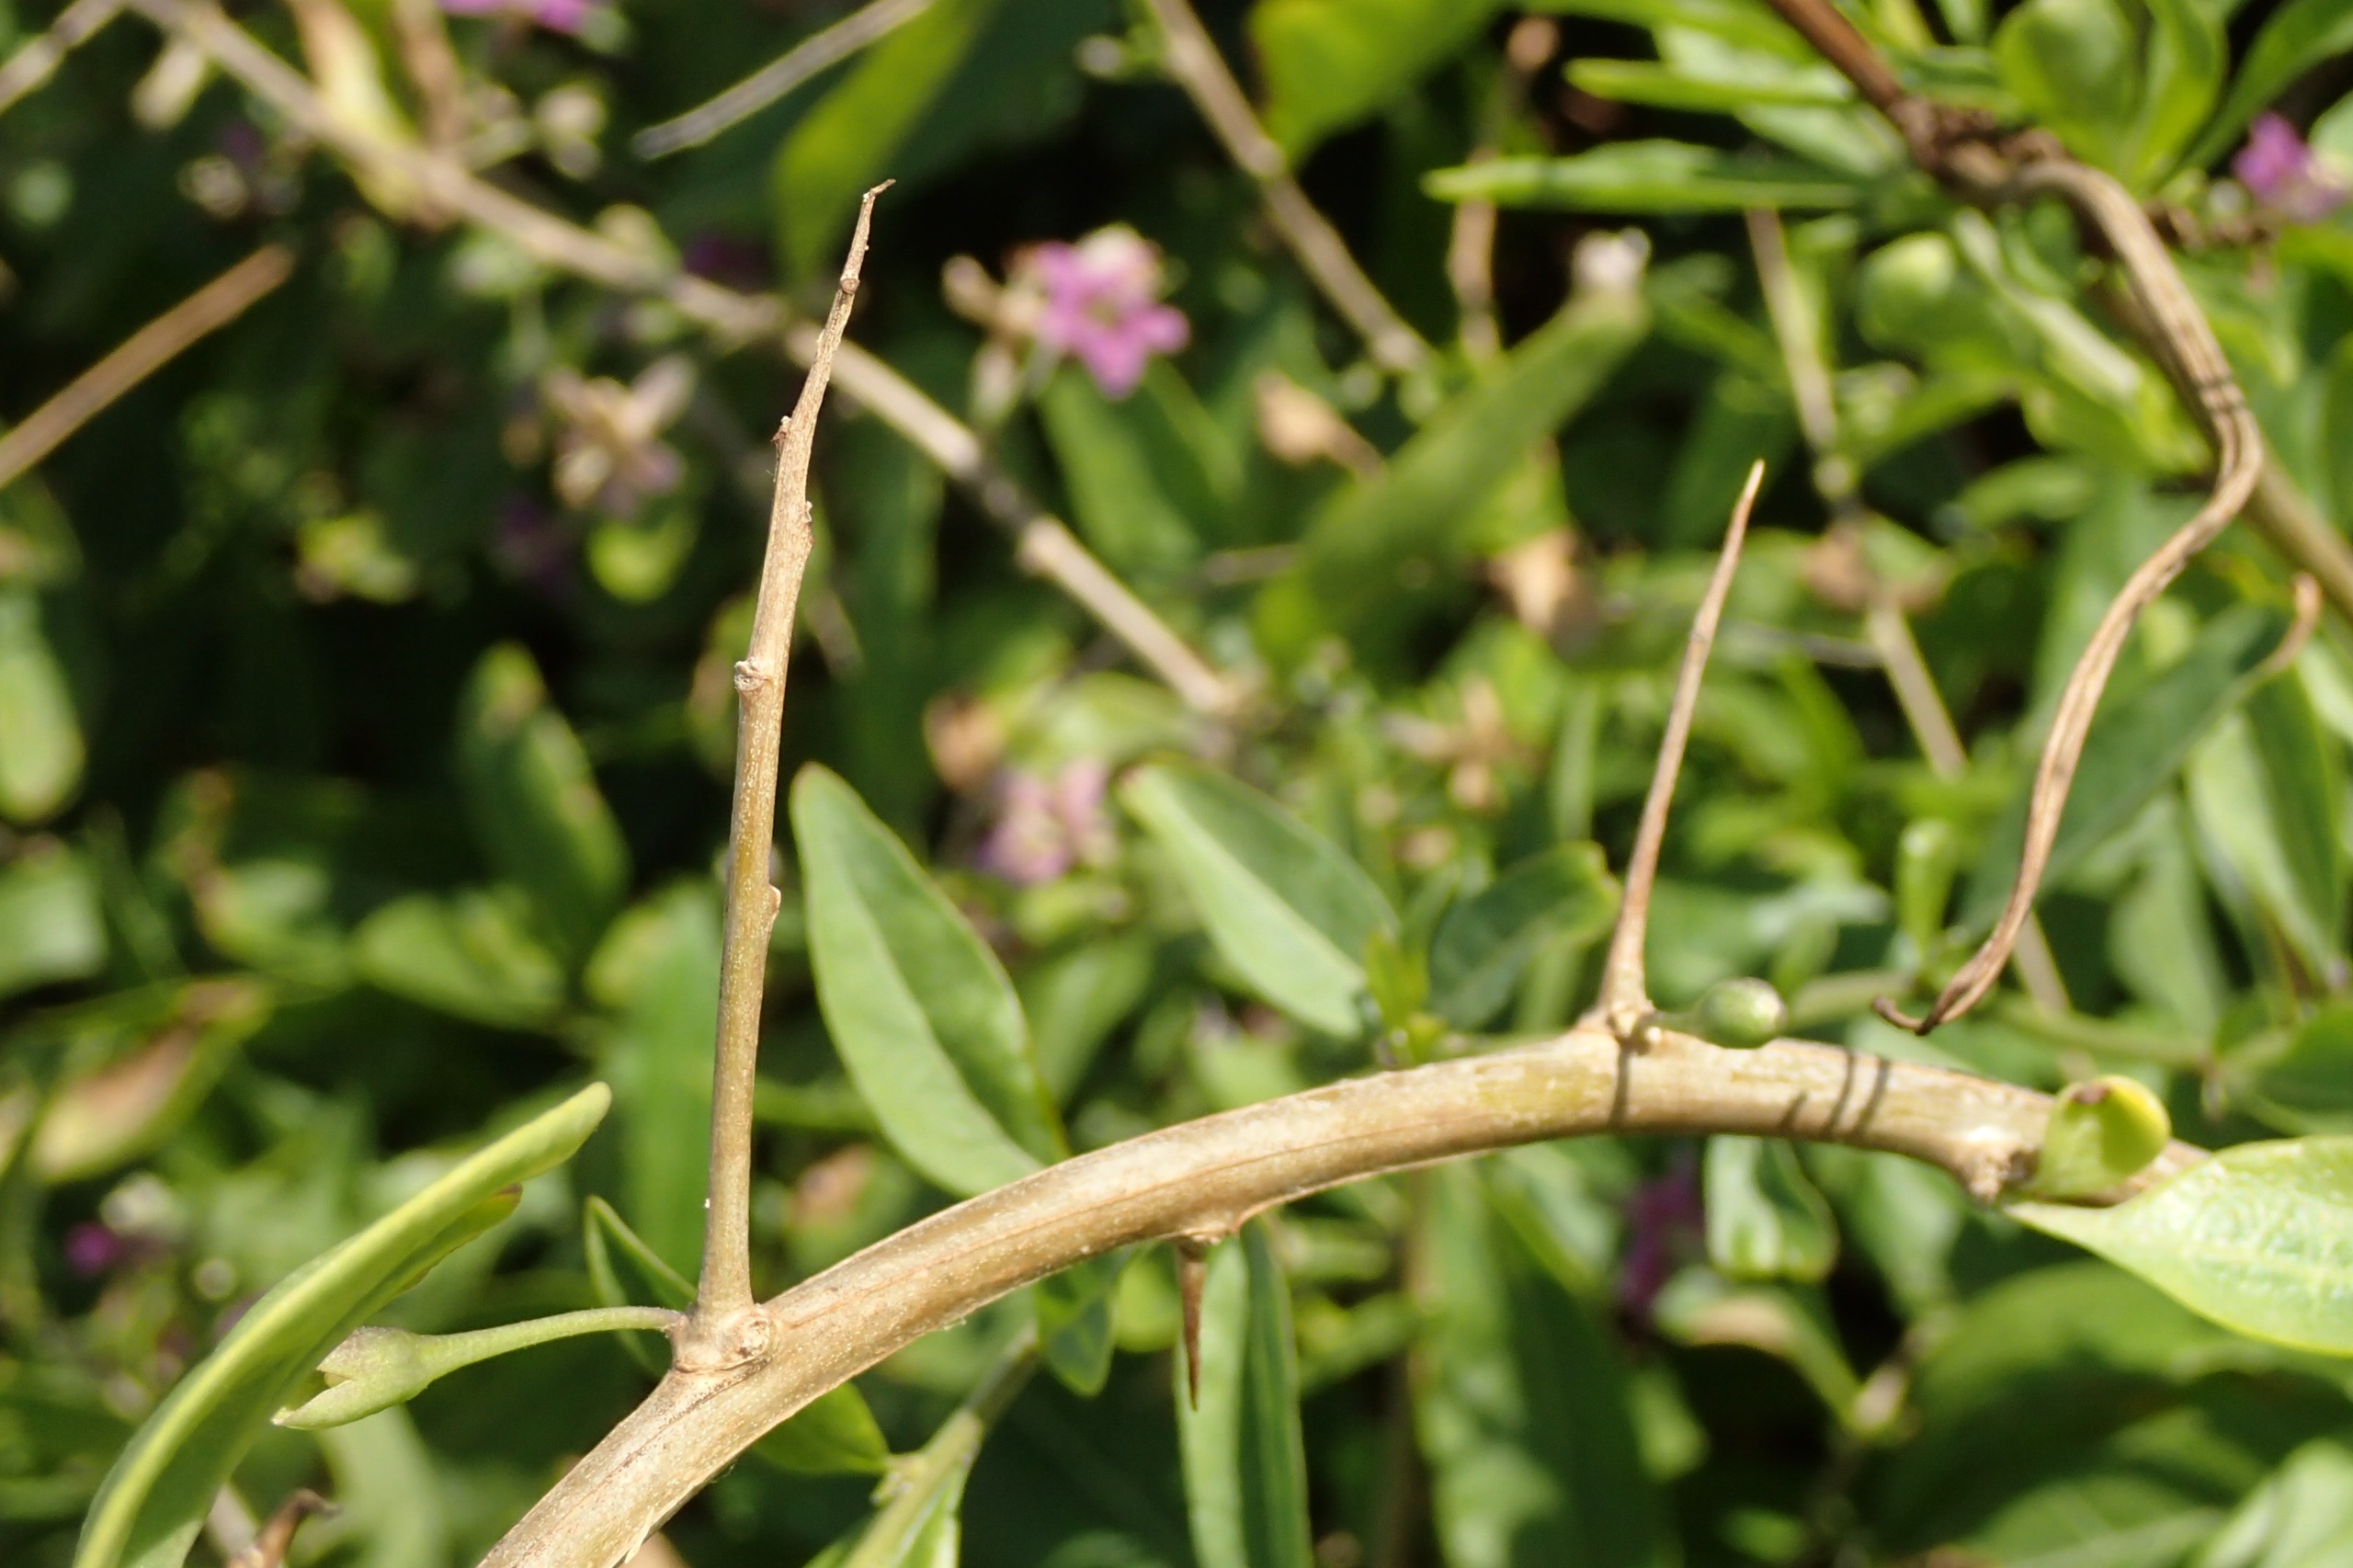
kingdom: Plantae
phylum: Tracheophyta
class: Magnoliopsida
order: Solanales
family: Solanaceae
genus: Lycium
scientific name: Lycium barbarum
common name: Bukketorn
